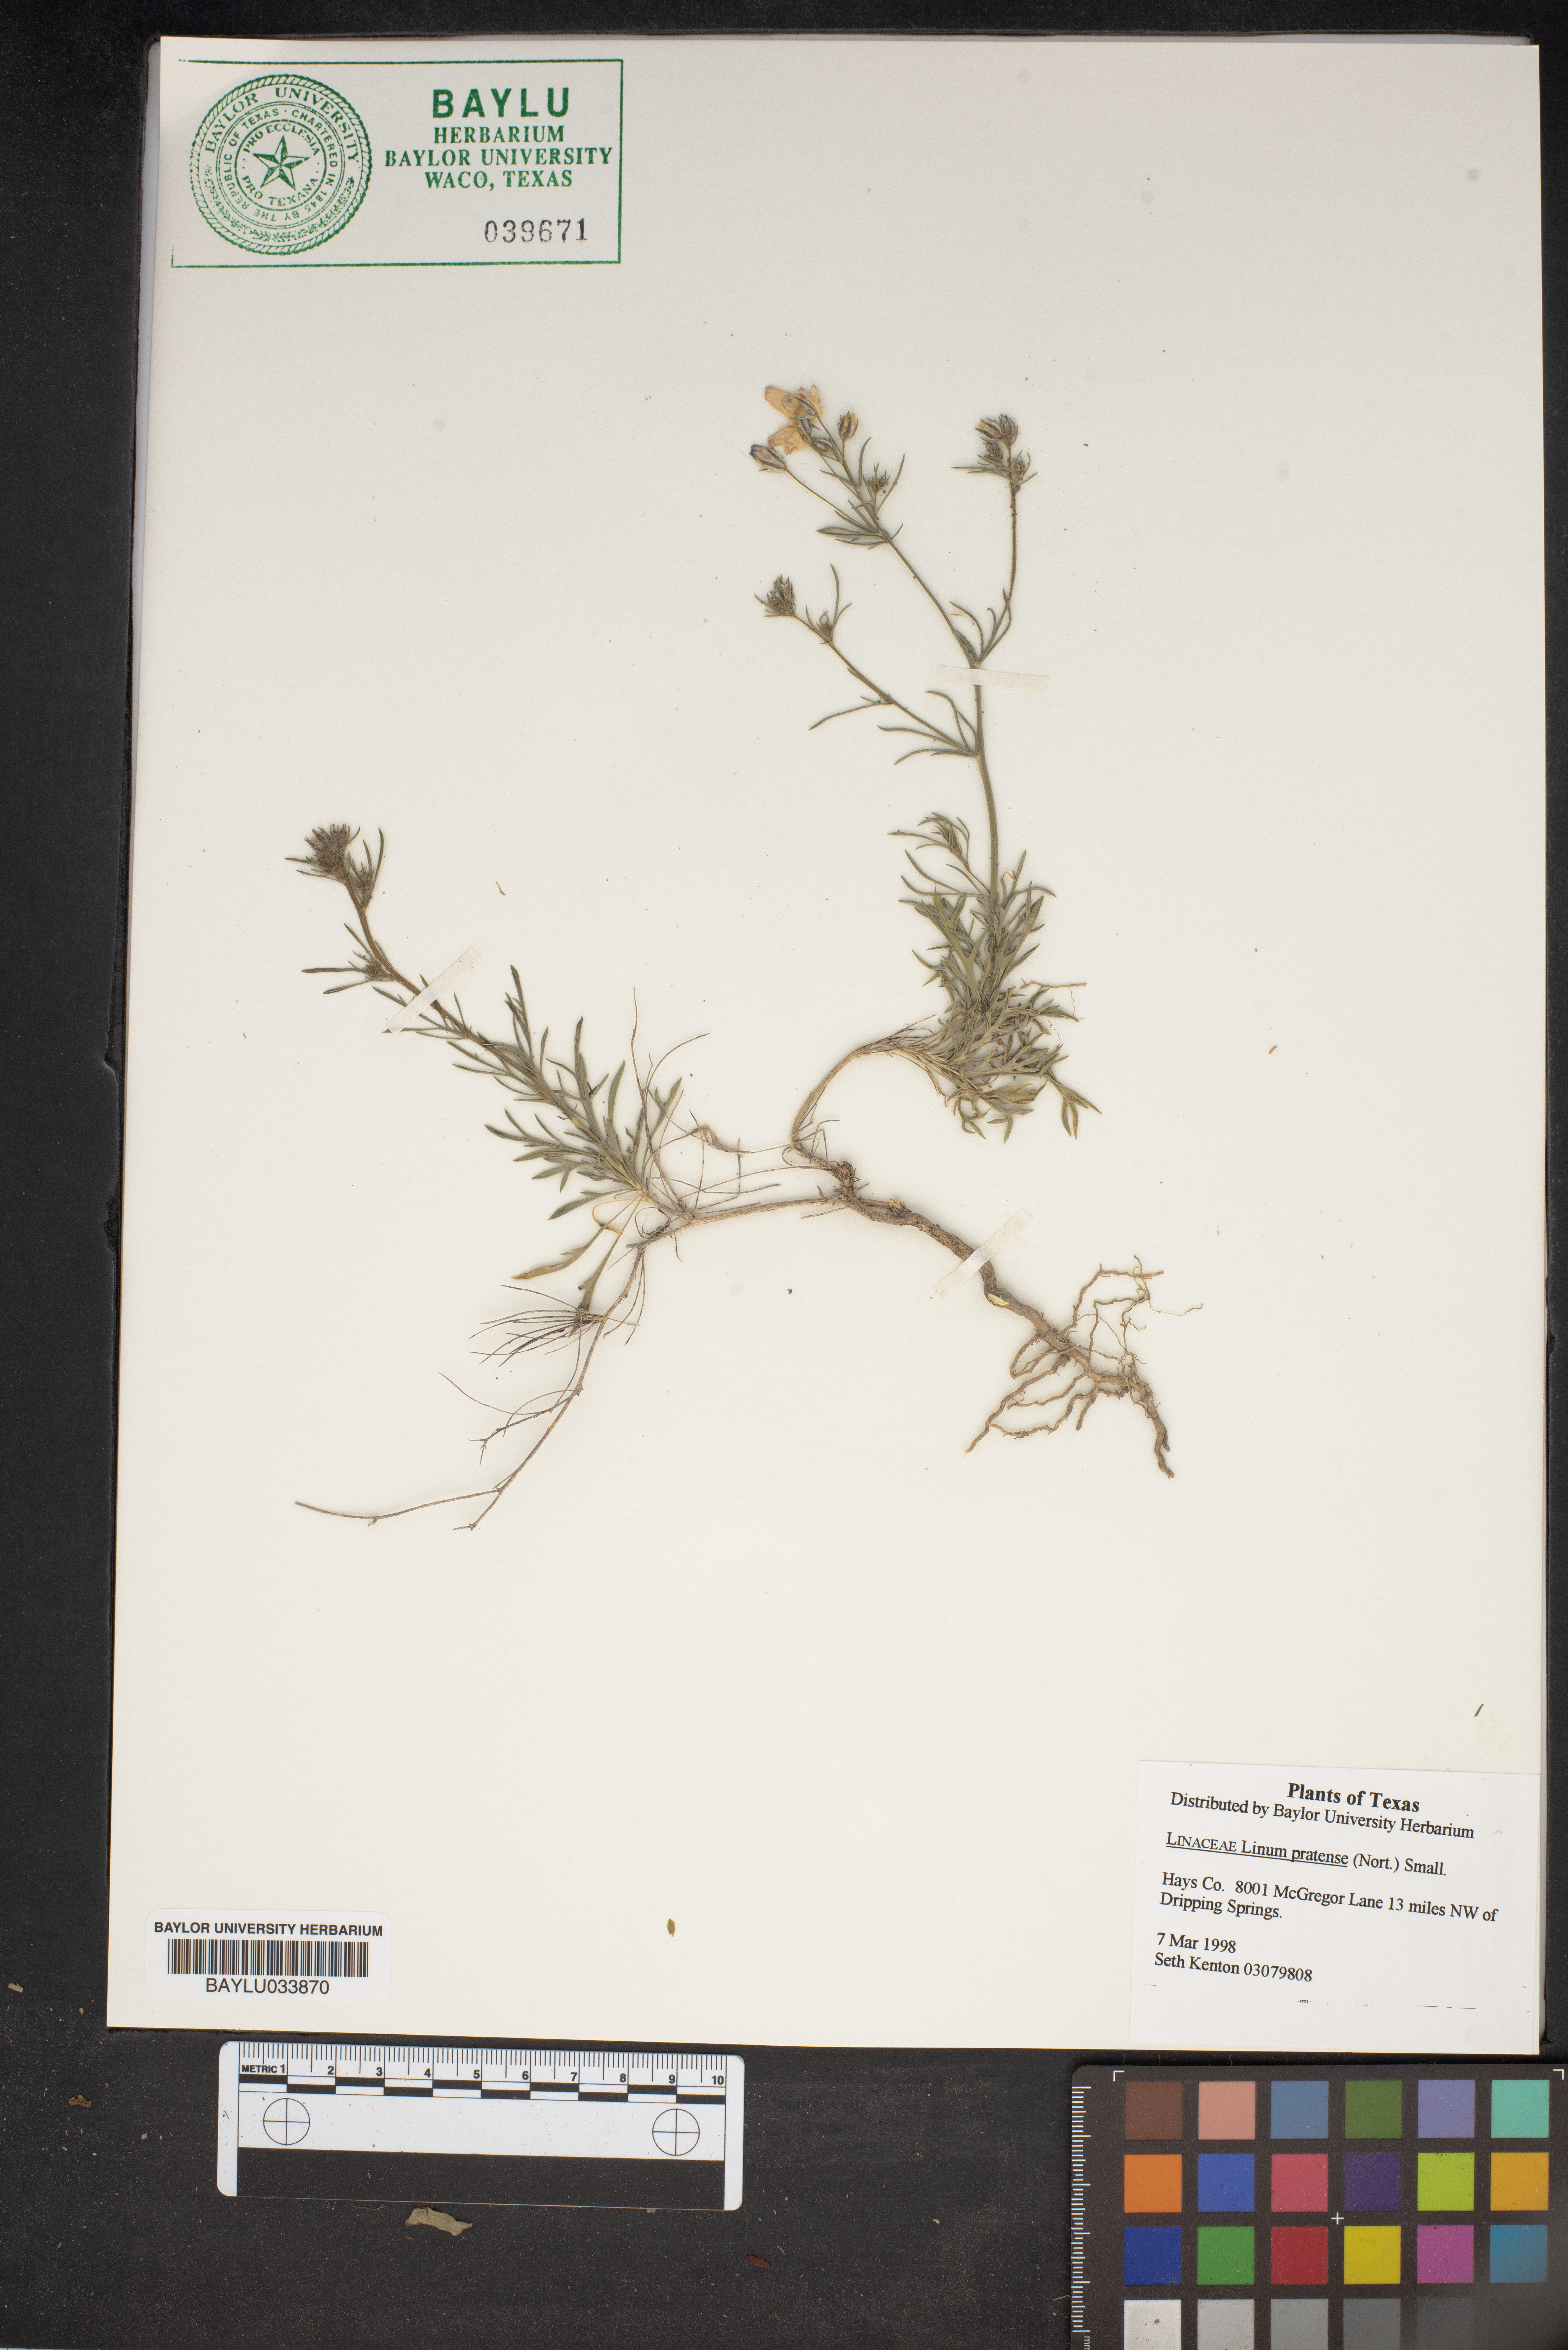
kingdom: Plantae
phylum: Tracheophyta
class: Magnoliopsida
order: Malpighiales
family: Linaceae
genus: Linum
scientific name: Linum pratense
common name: Norton's flax
